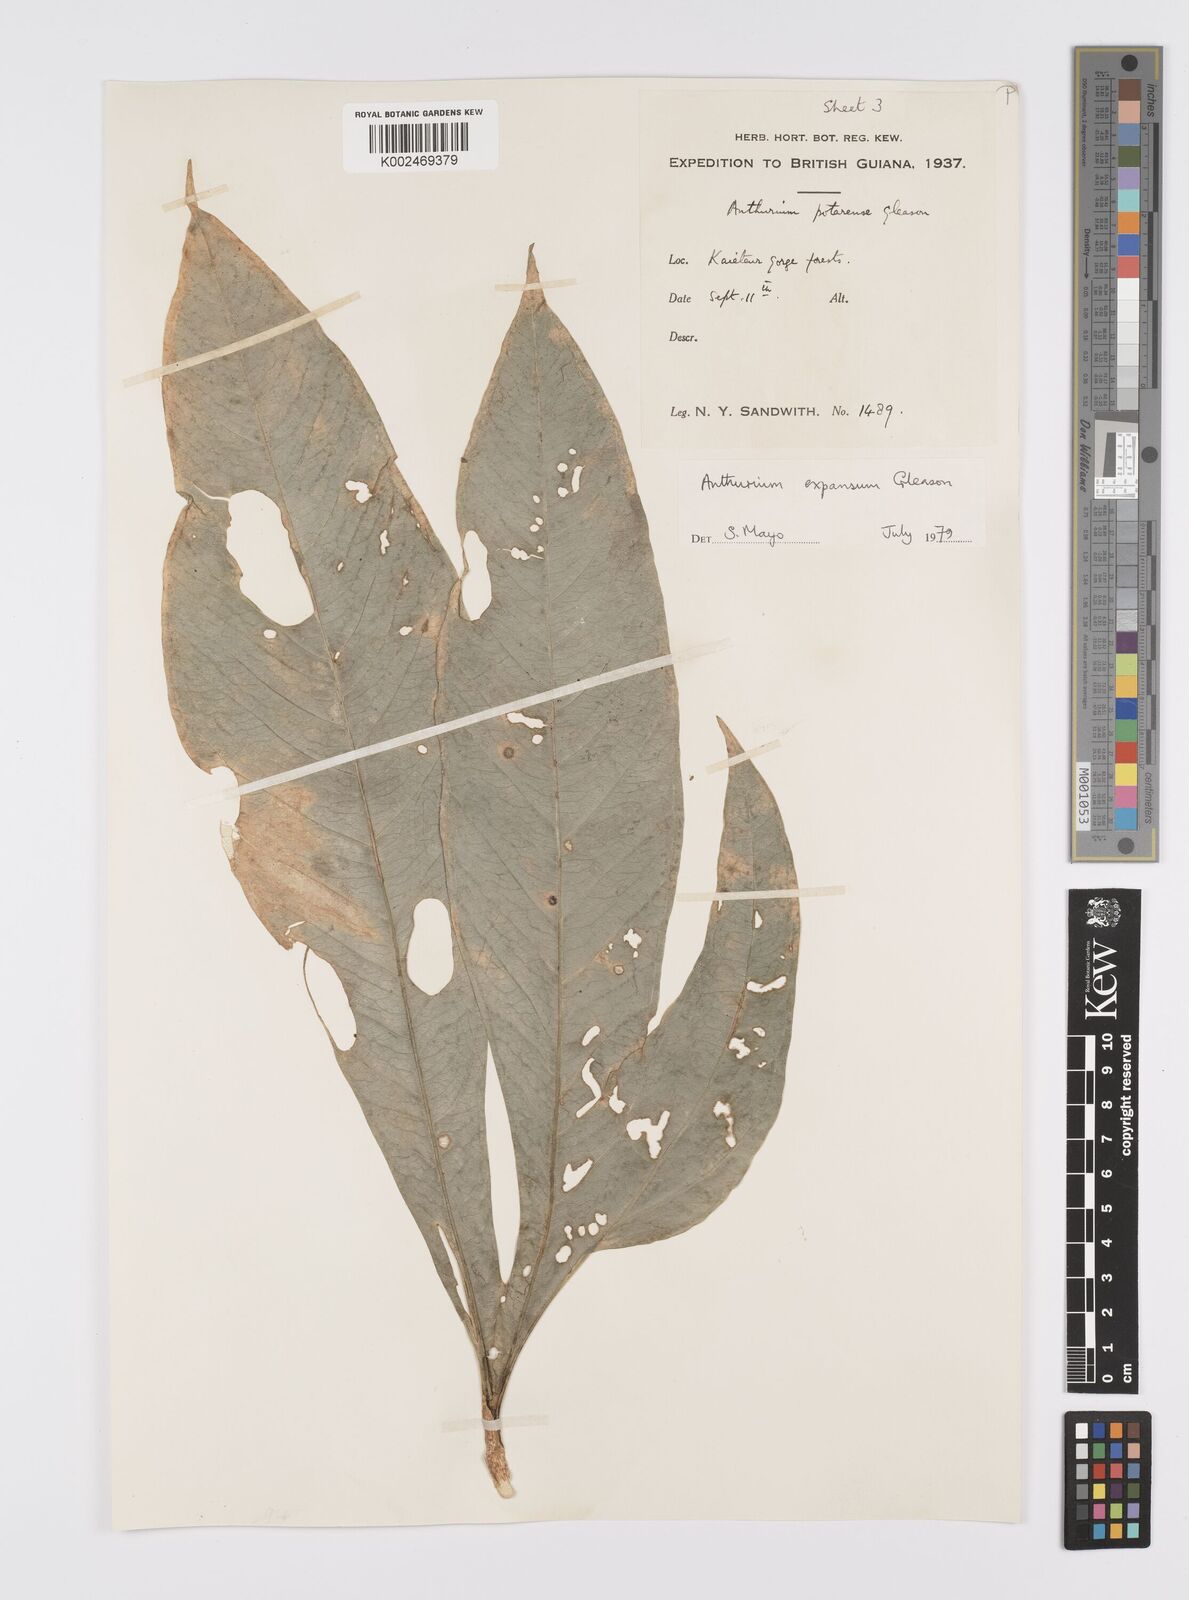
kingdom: Plantae
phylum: Tracheophyta
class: Liliopsida
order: Alismatales
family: Araceae
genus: Anthurium
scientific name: Anthurium expansum
